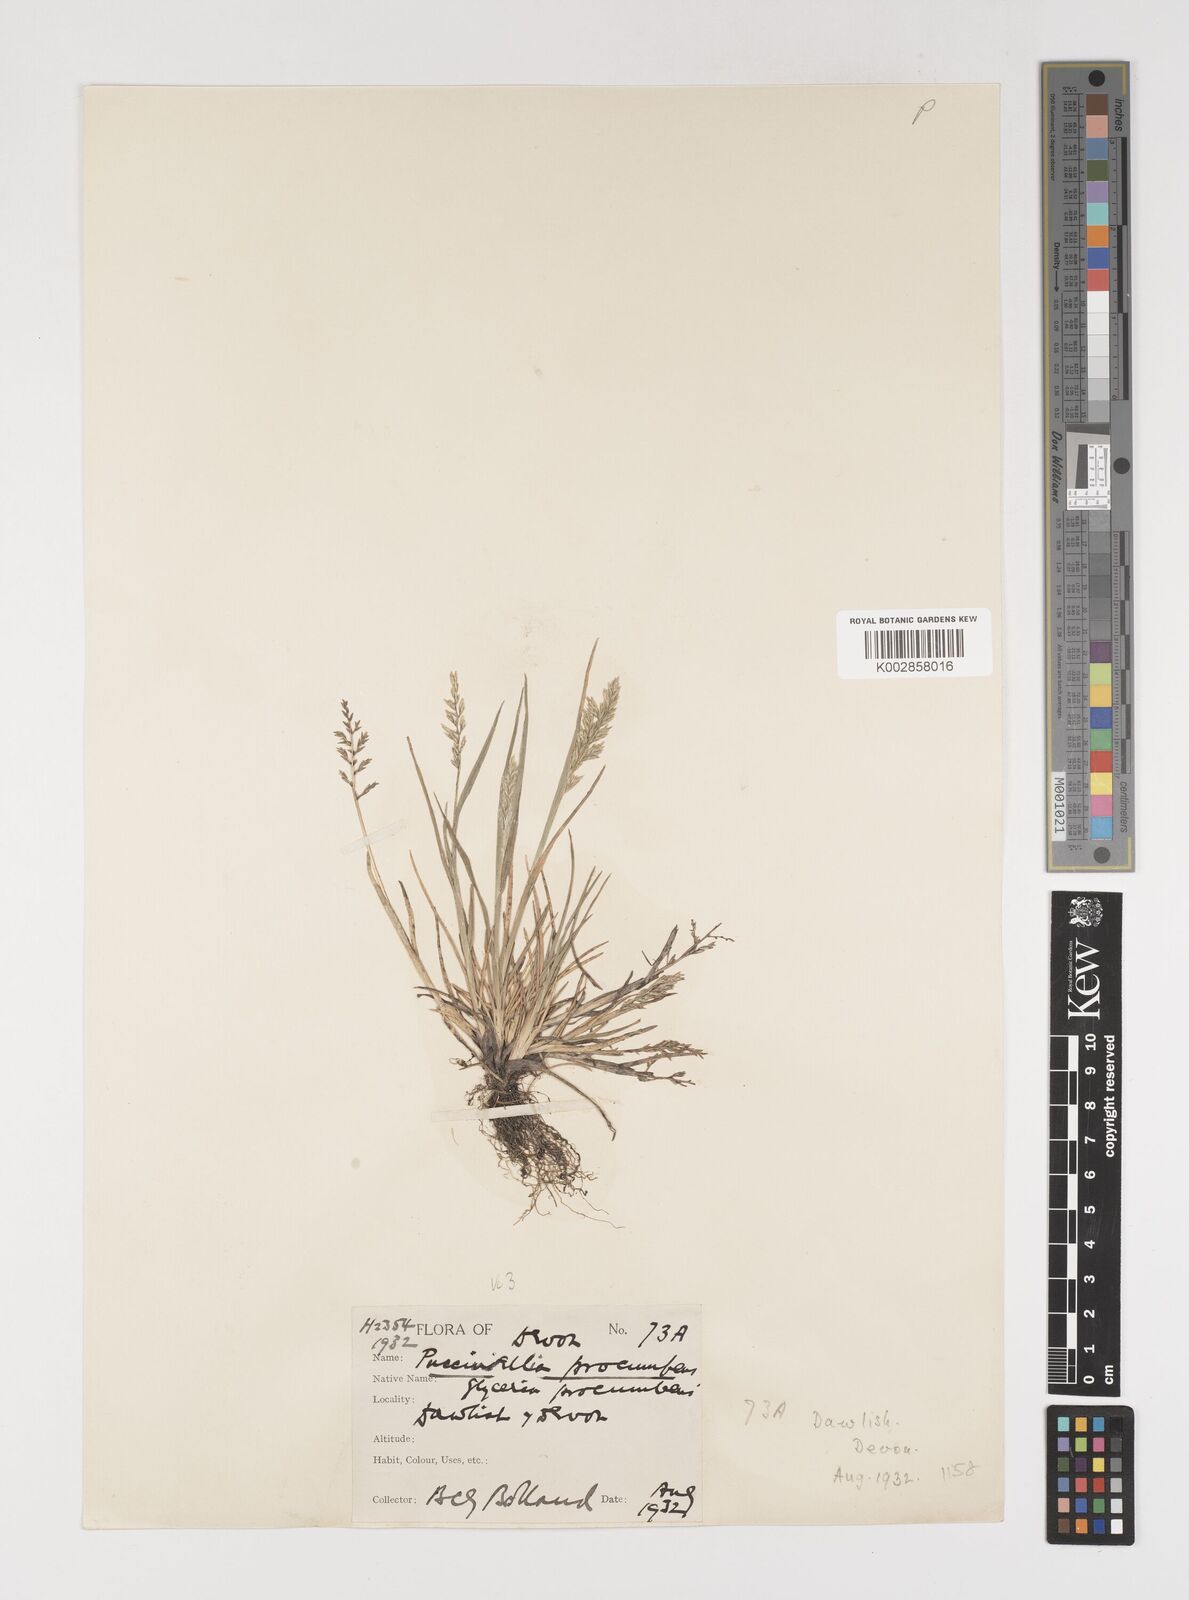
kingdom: Plantae
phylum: Tracheophyta
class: Liliopsida
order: Poales
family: Poaceae
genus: Puccinellia
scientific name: Puccinellia rupestris
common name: Stiff saltmarsh-grass
